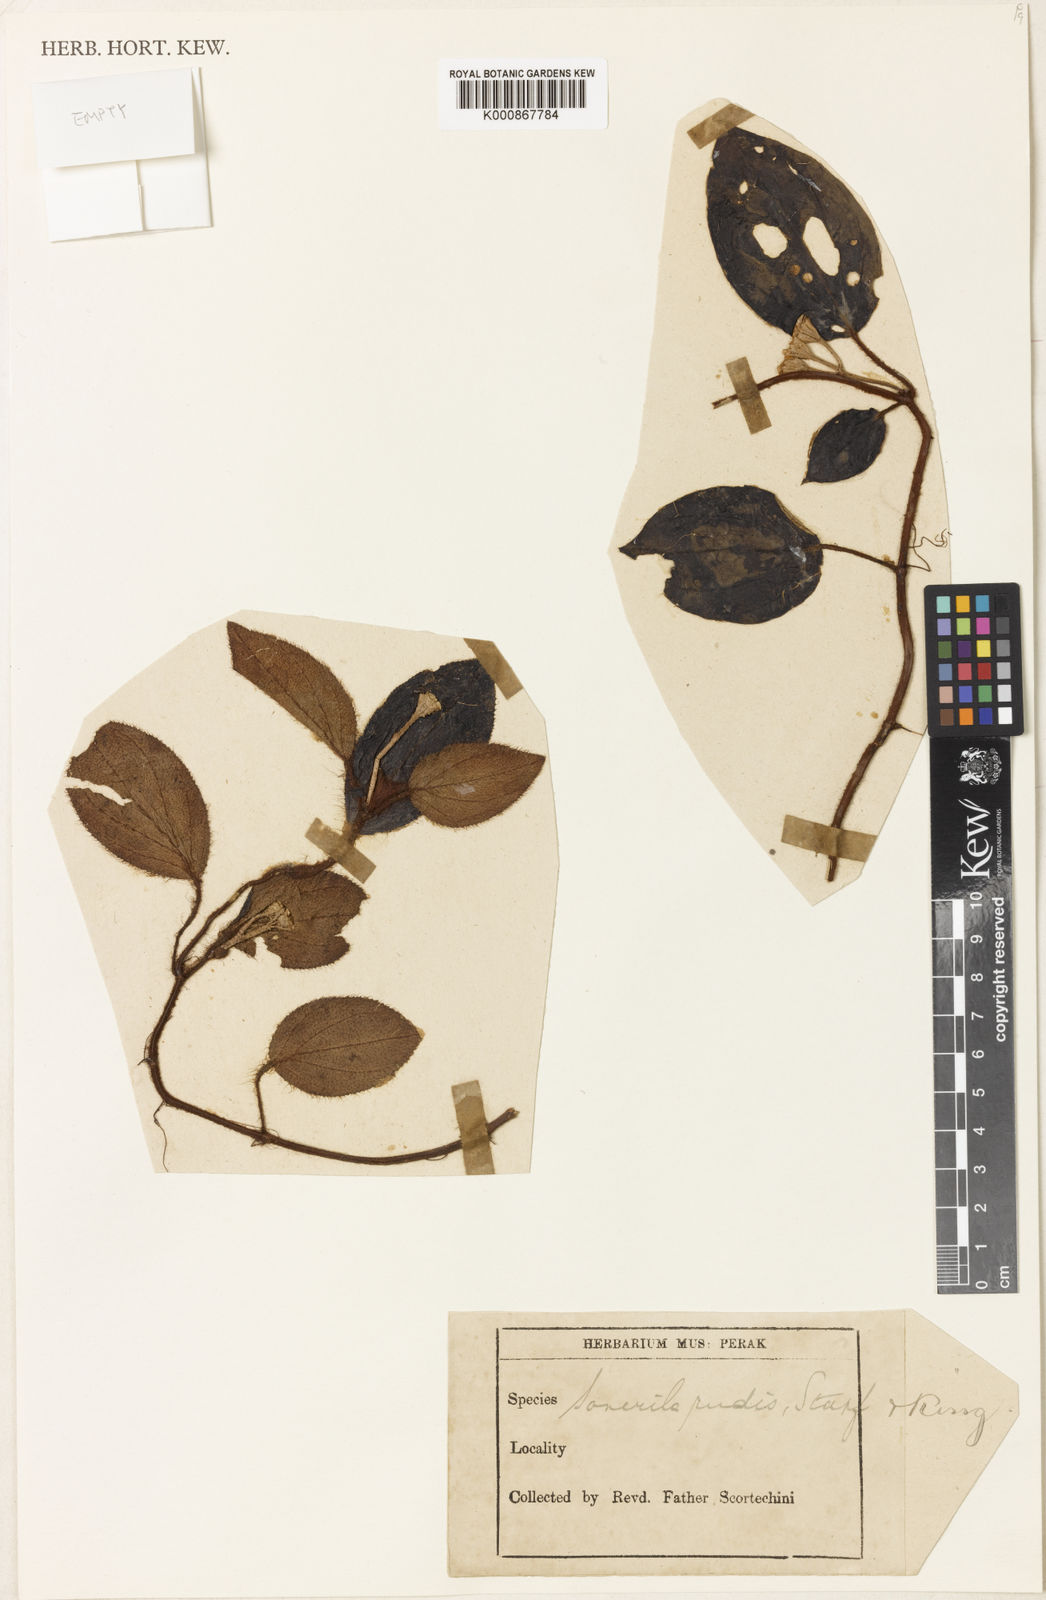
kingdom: Plantae
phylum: Tracheophyta
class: Magnoliopsida
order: Myrtales
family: Melastomataceae
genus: Sonerila
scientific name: Sonerila rudis
